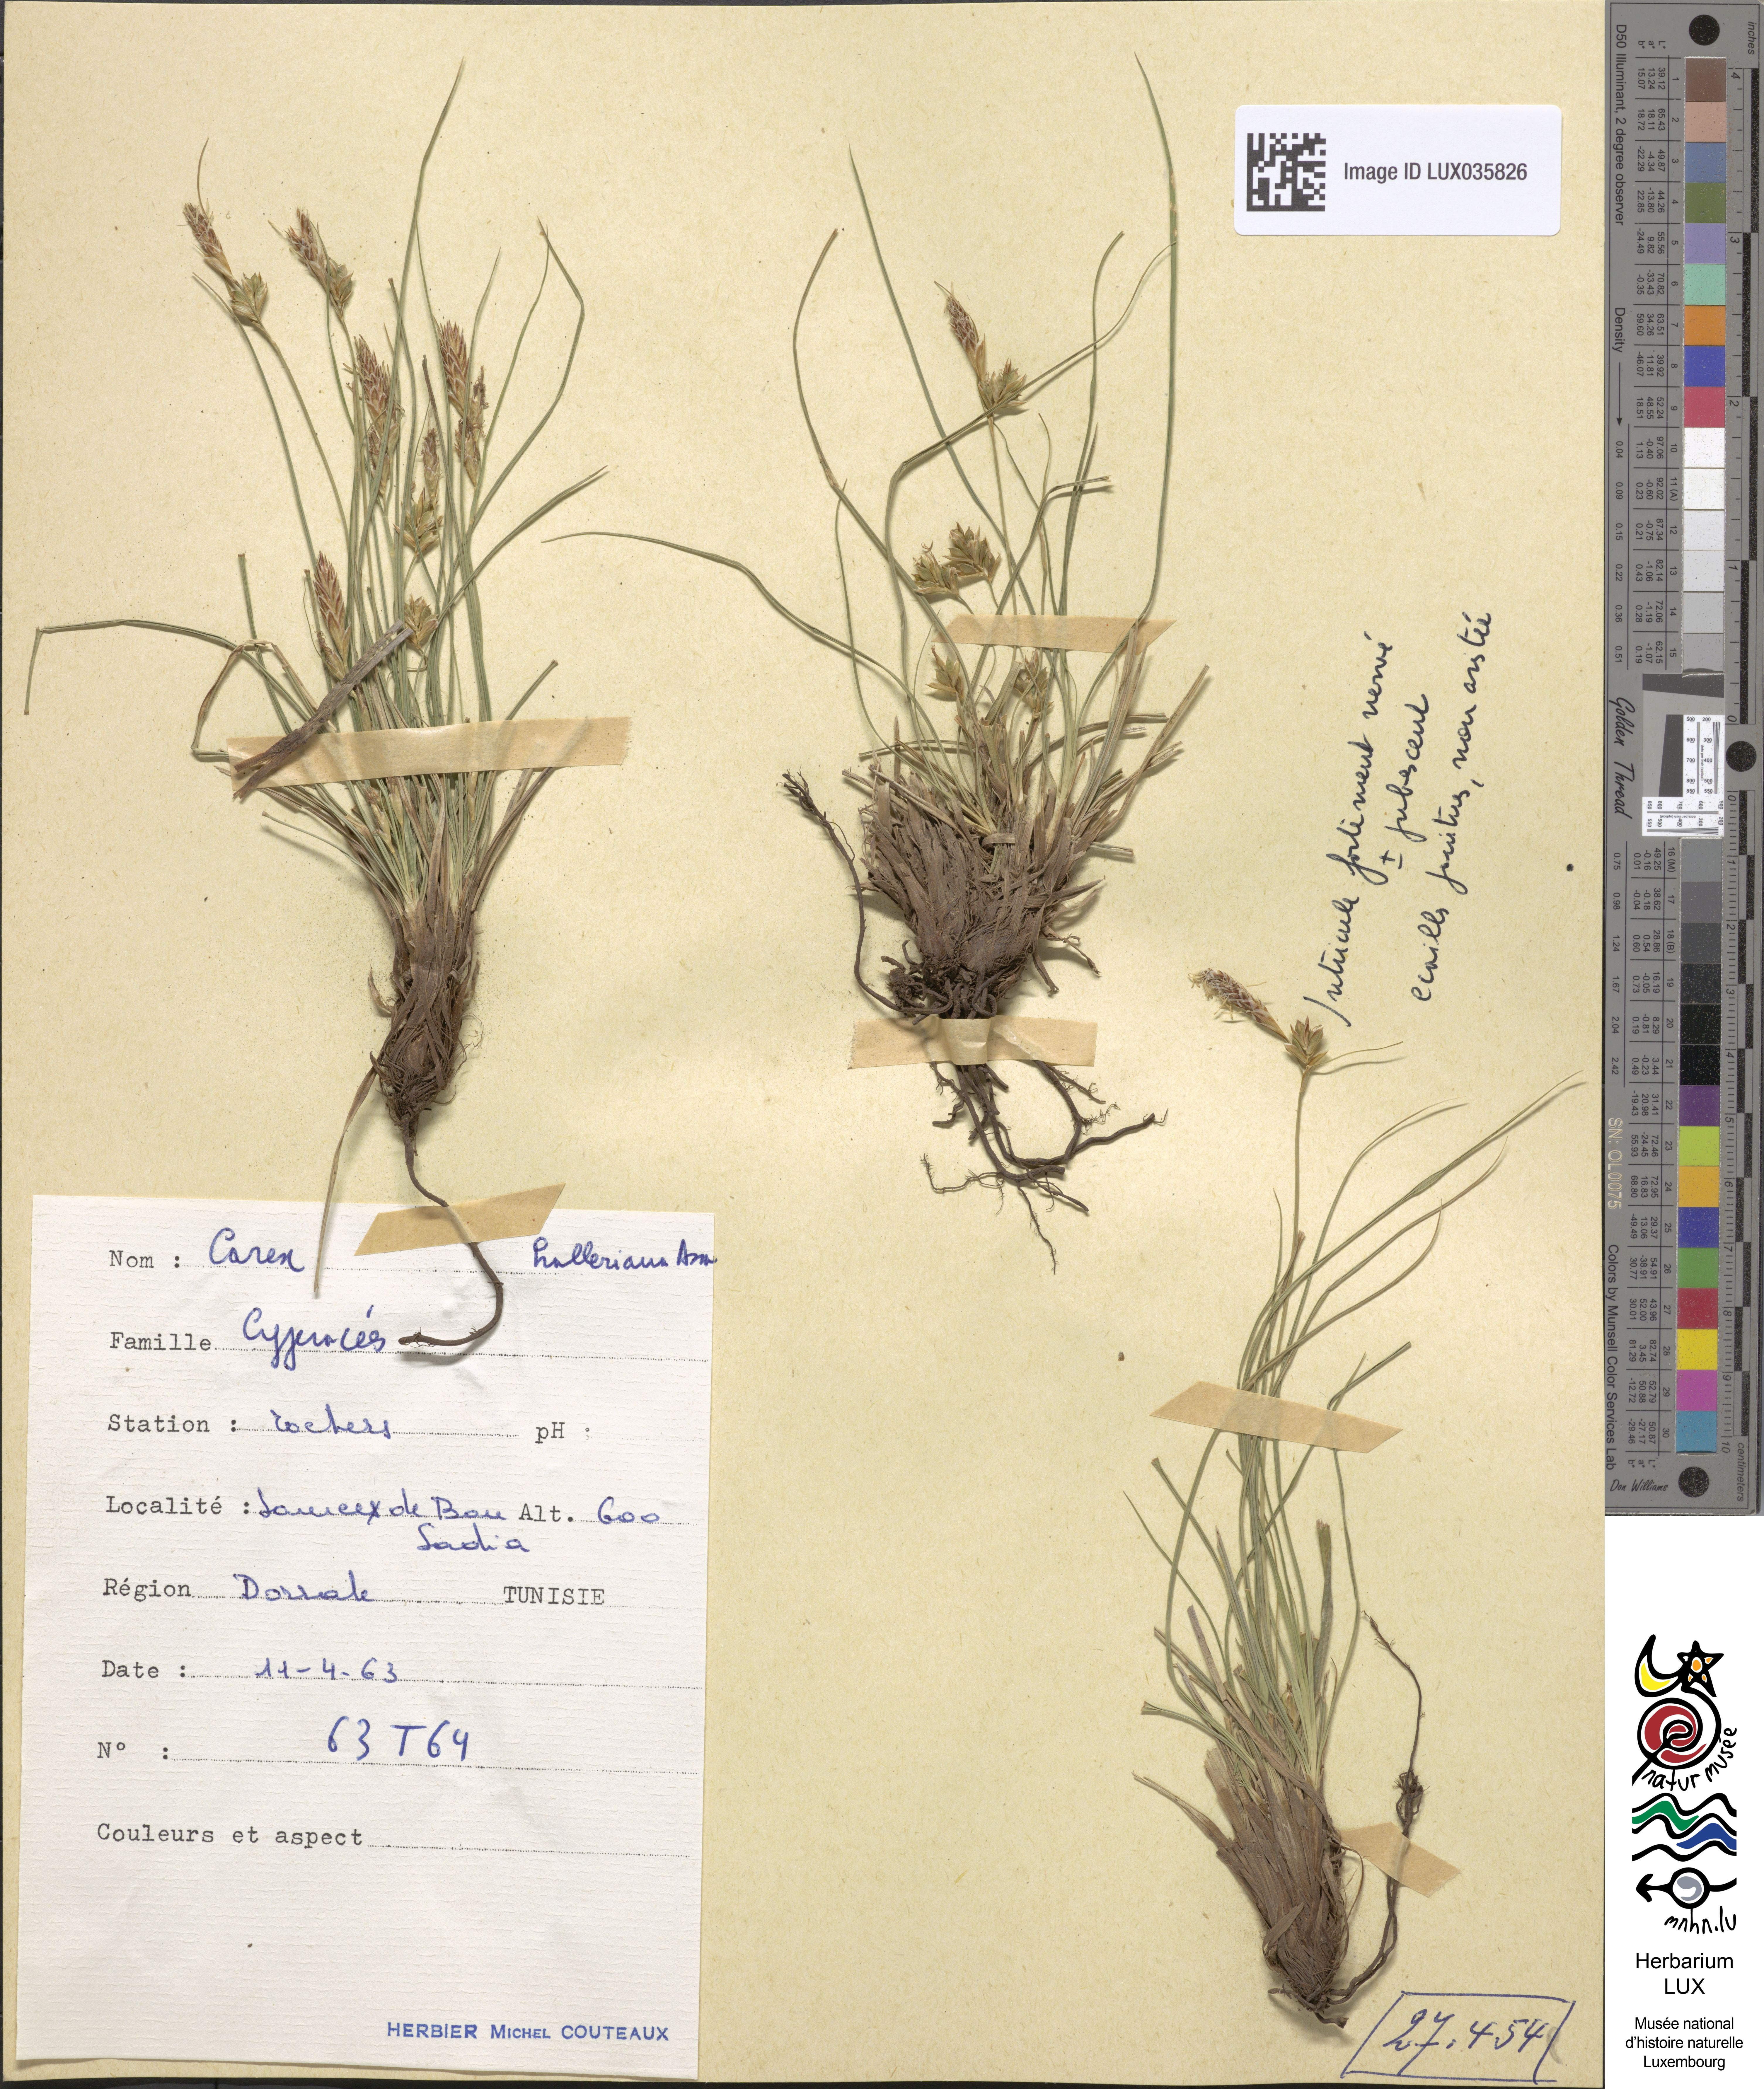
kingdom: Plantae
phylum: Tracheophyta
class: Liliopsida
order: Poales
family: Cyperaceae
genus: Carex
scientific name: Carex halleriana
